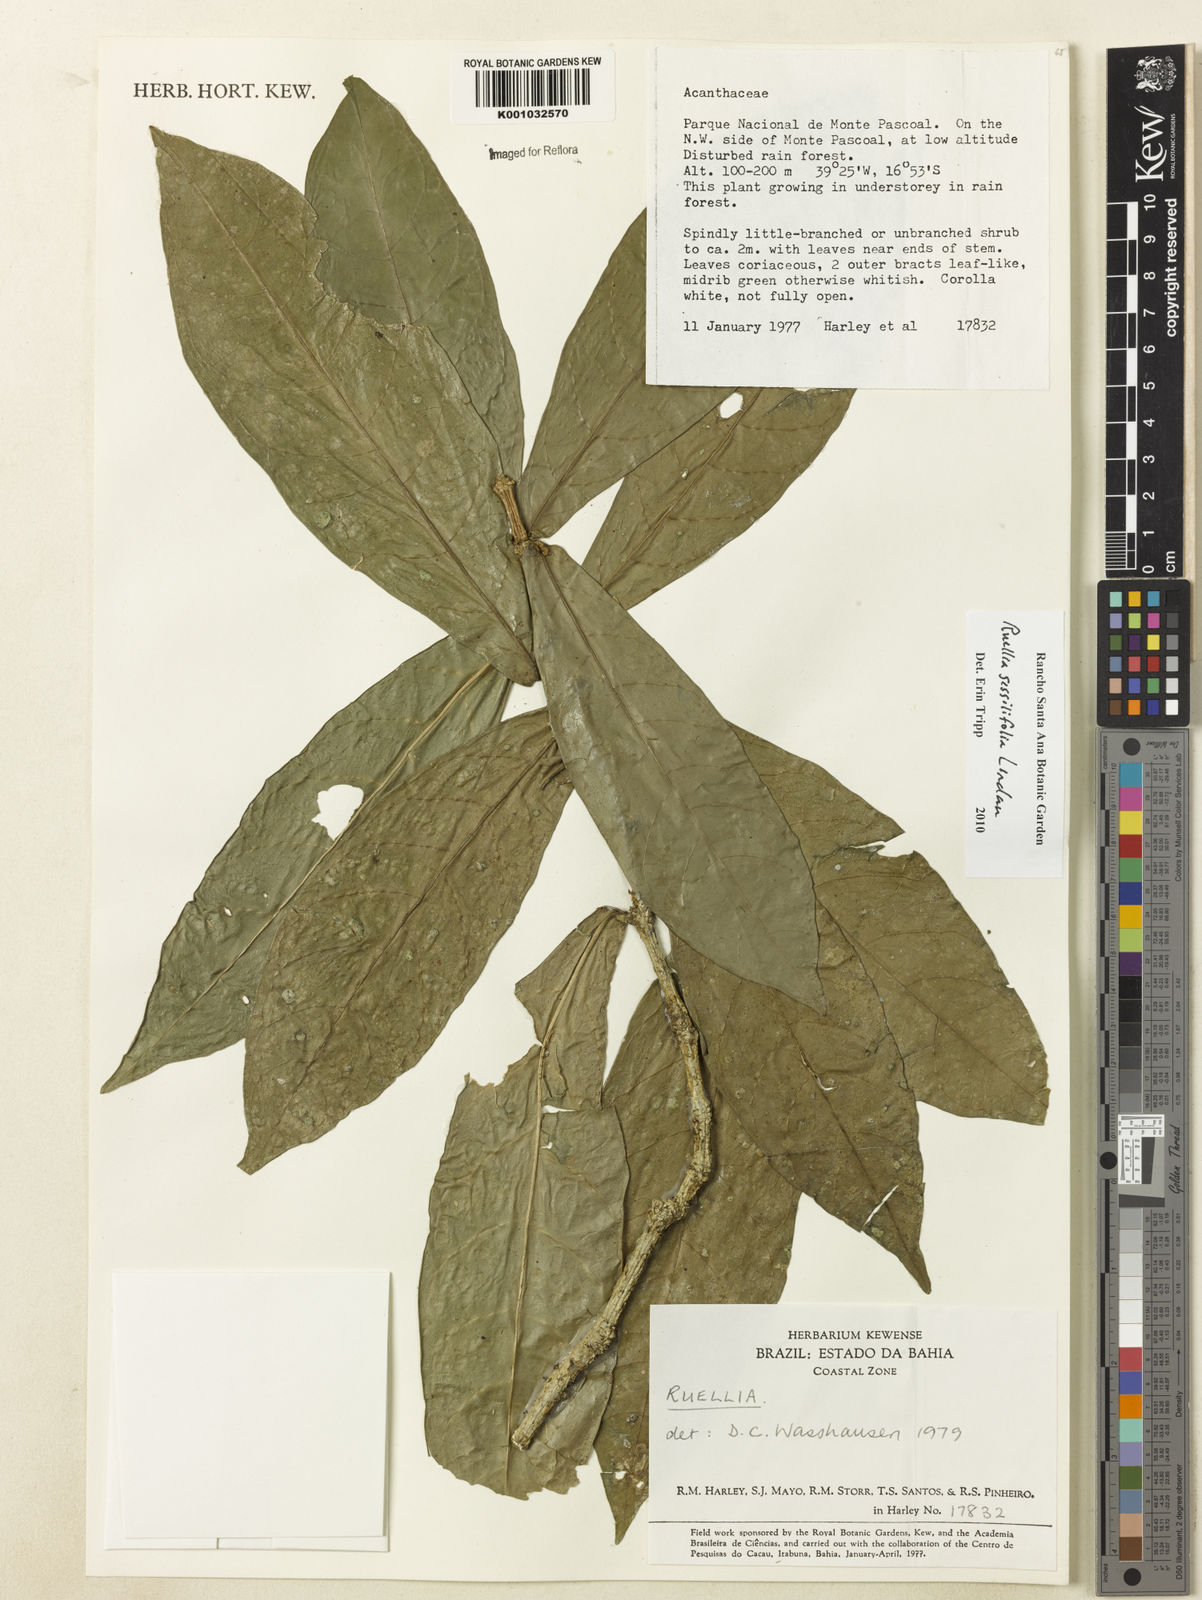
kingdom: Plantae
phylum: Tracheophyta
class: Magnoliopsida
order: Lamiales
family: Acanthaceae
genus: Ruellia
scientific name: Ruellia sessilifolia
